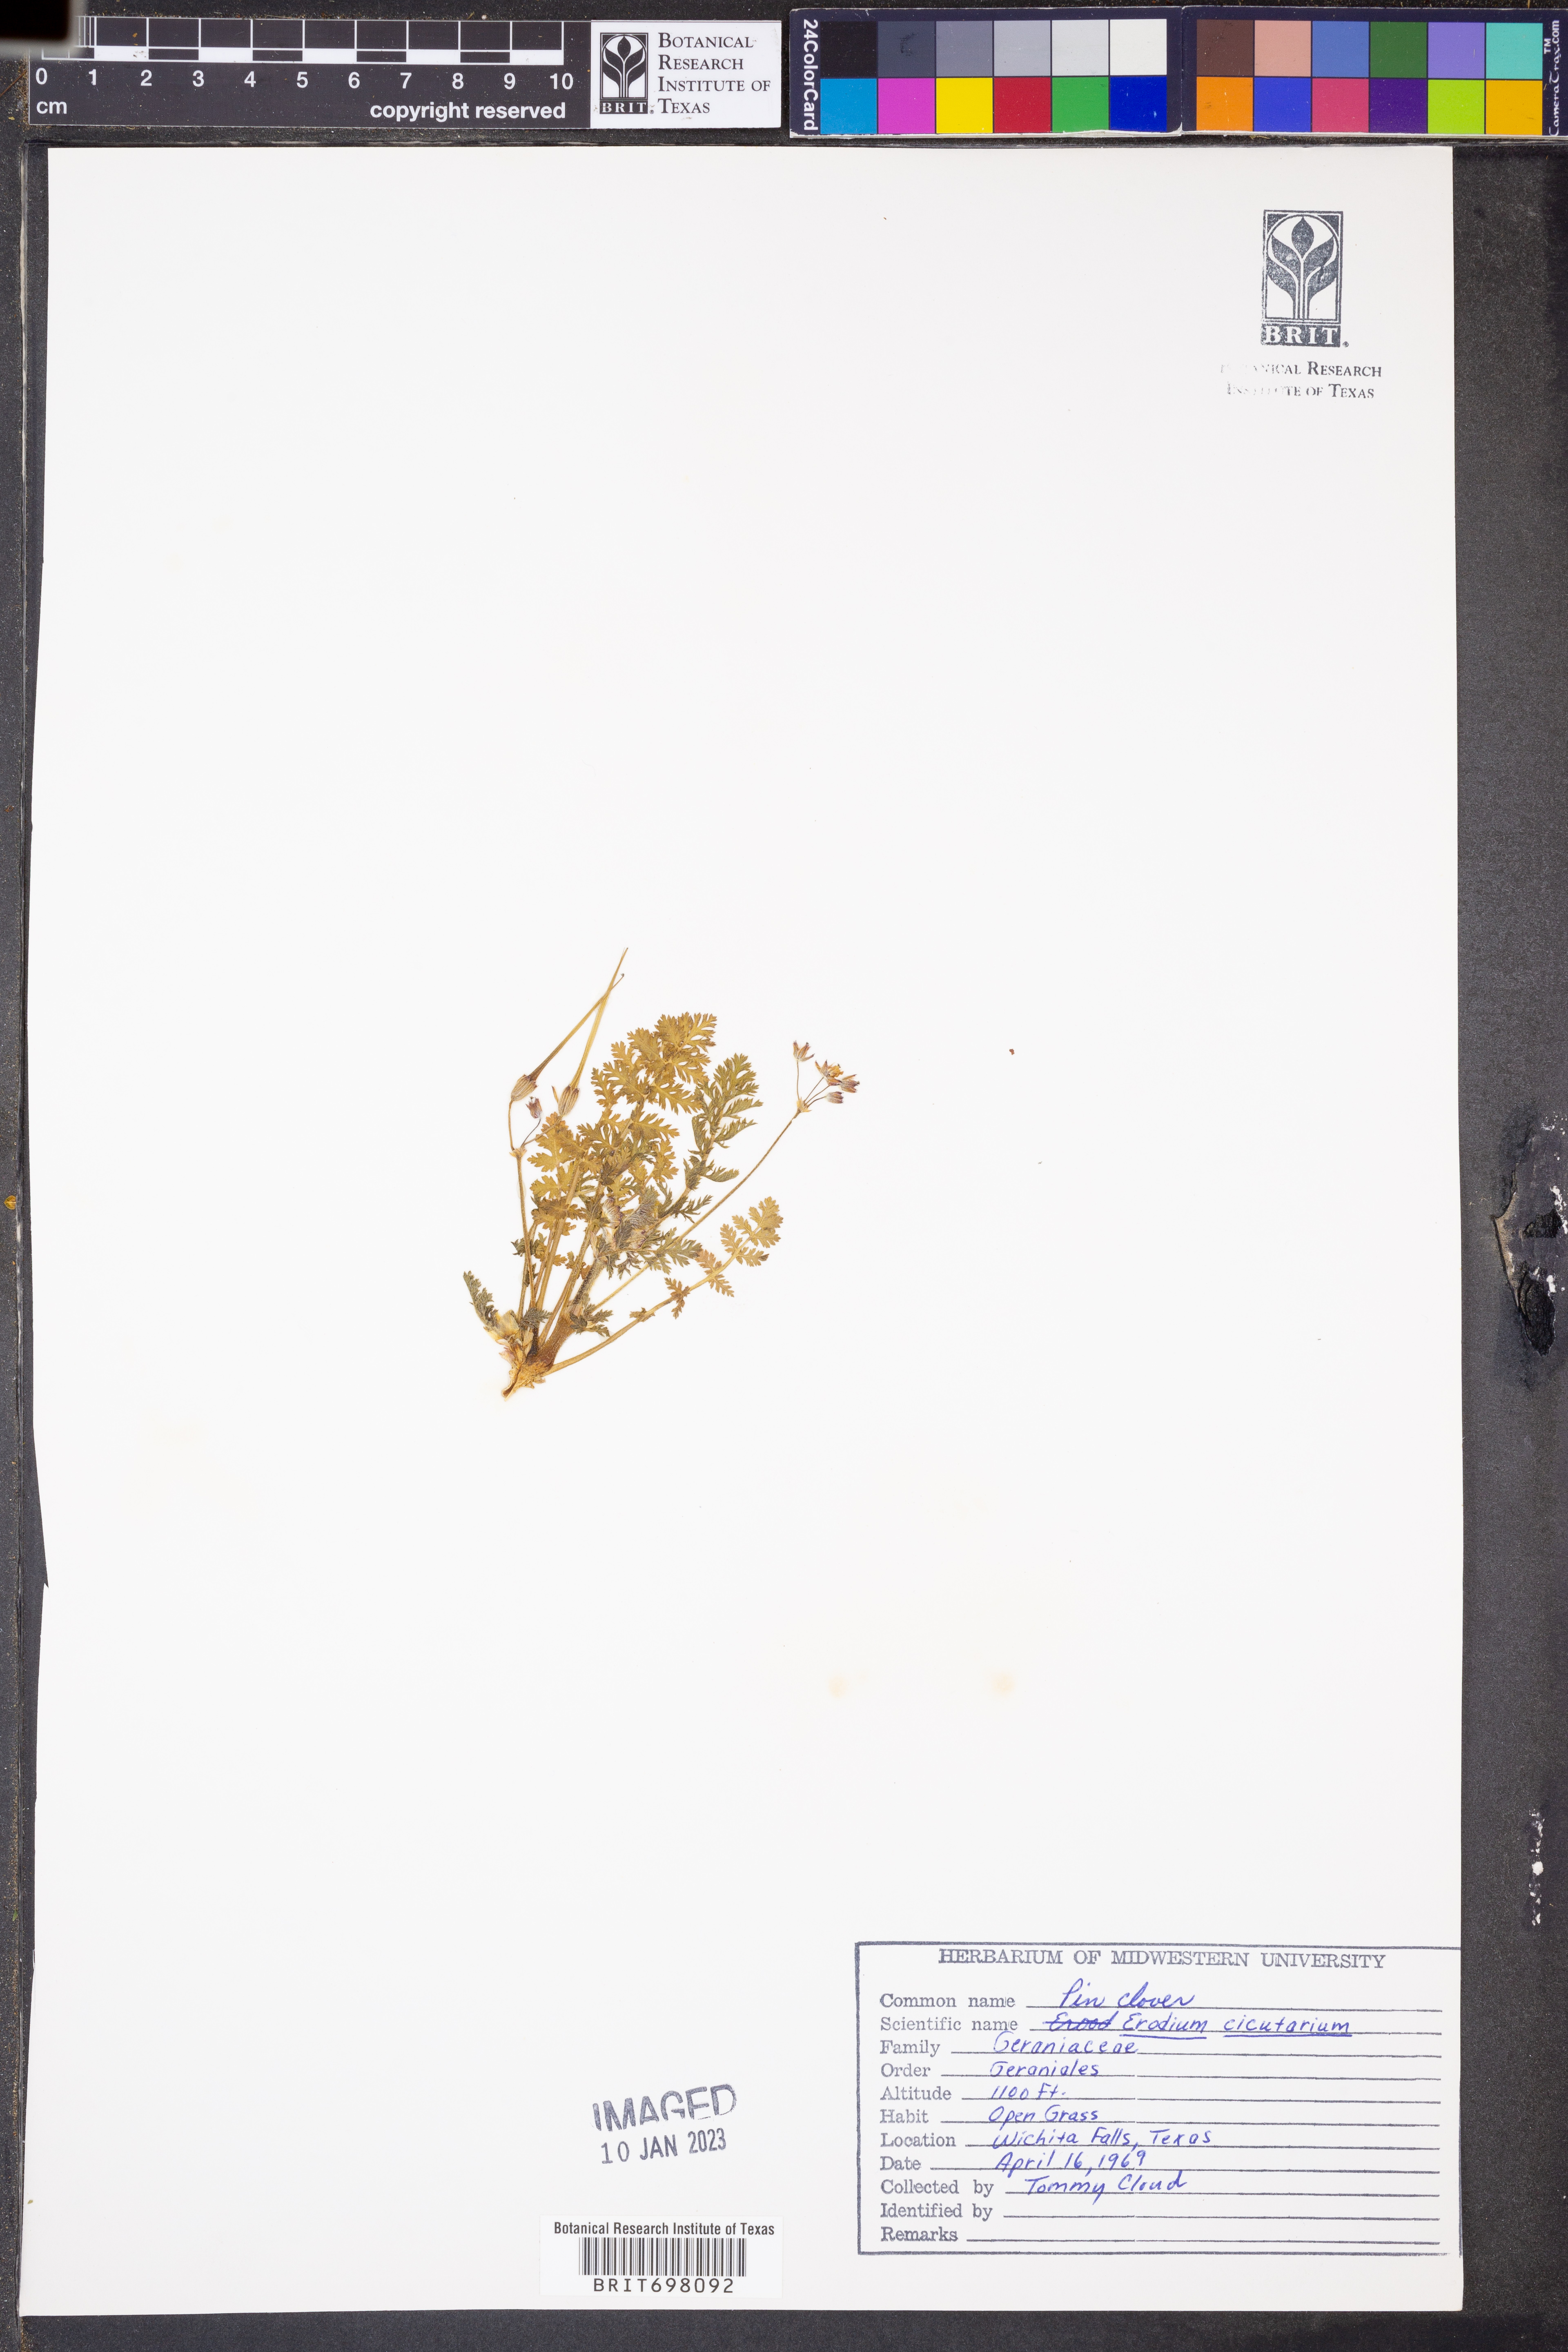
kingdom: Plantae
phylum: Tracheophyta
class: Magnoliopsida
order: Geraniales
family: Geraniaceae
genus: Erodium
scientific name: Erodium cicutarium
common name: Common stork's-bill
